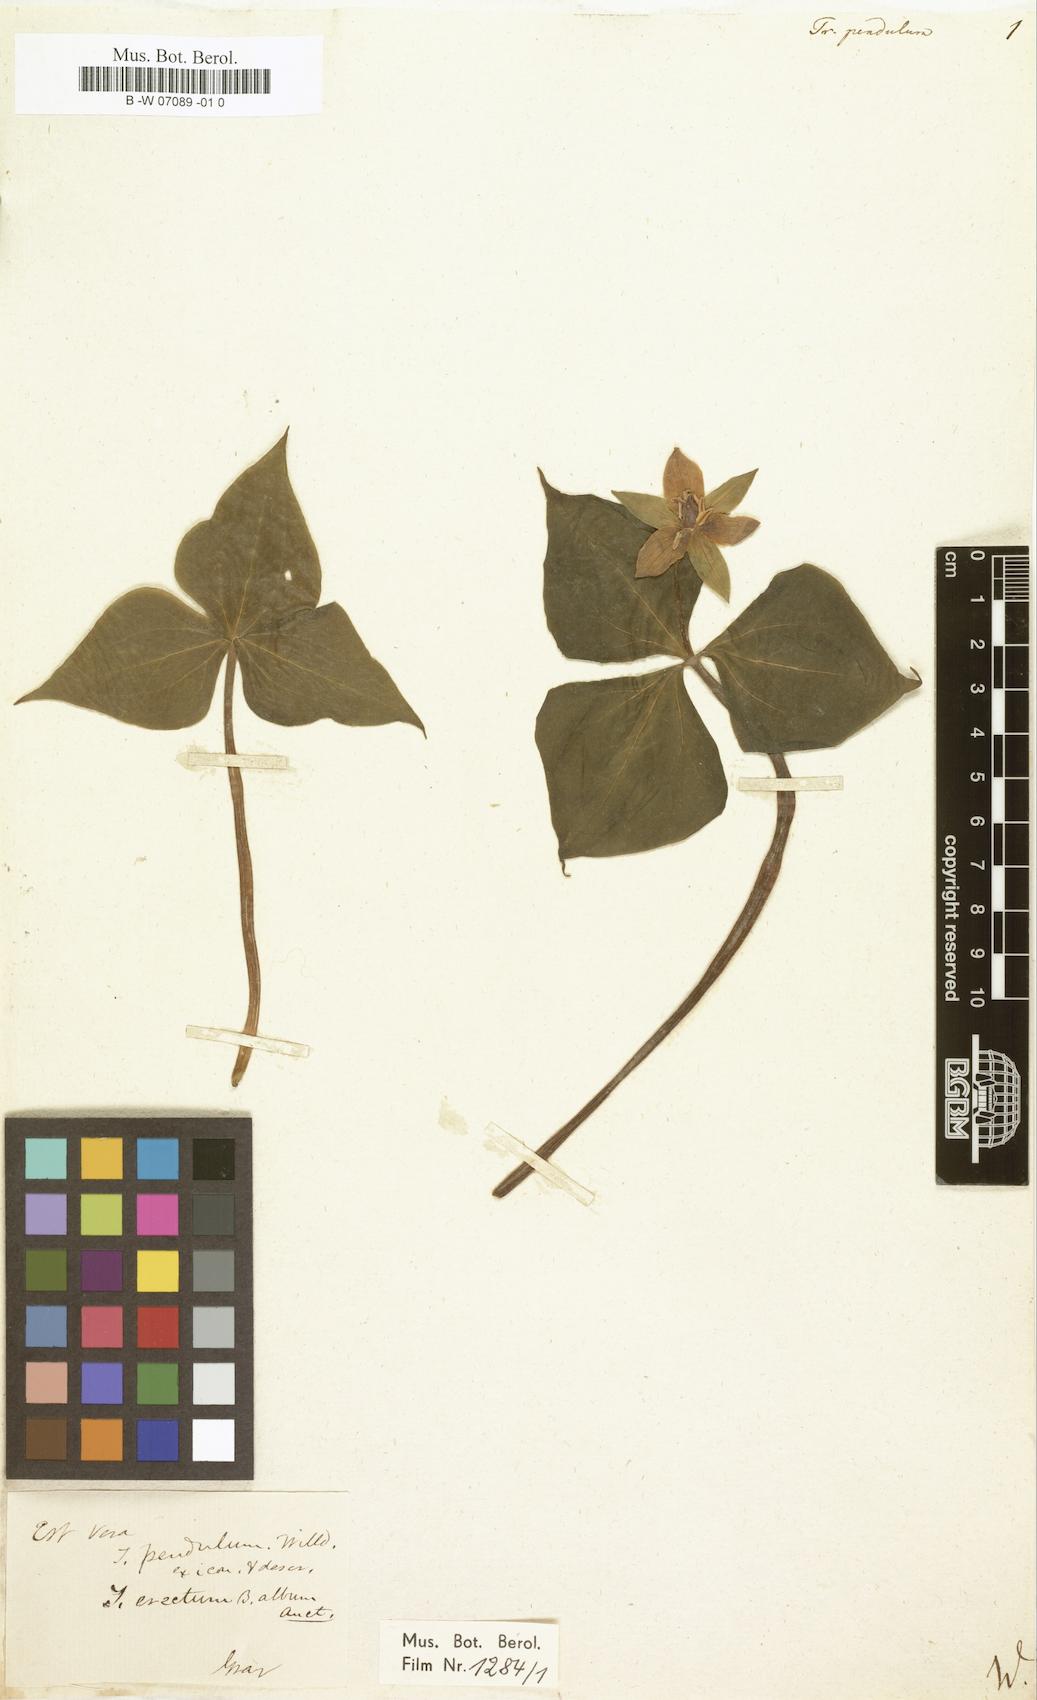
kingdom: Plantae
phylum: Tracheophyta
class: Liliopsida
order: Liliales
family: Melanthiaceae
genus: Trillium
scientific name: Trillium erectum
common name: Purple trillium
